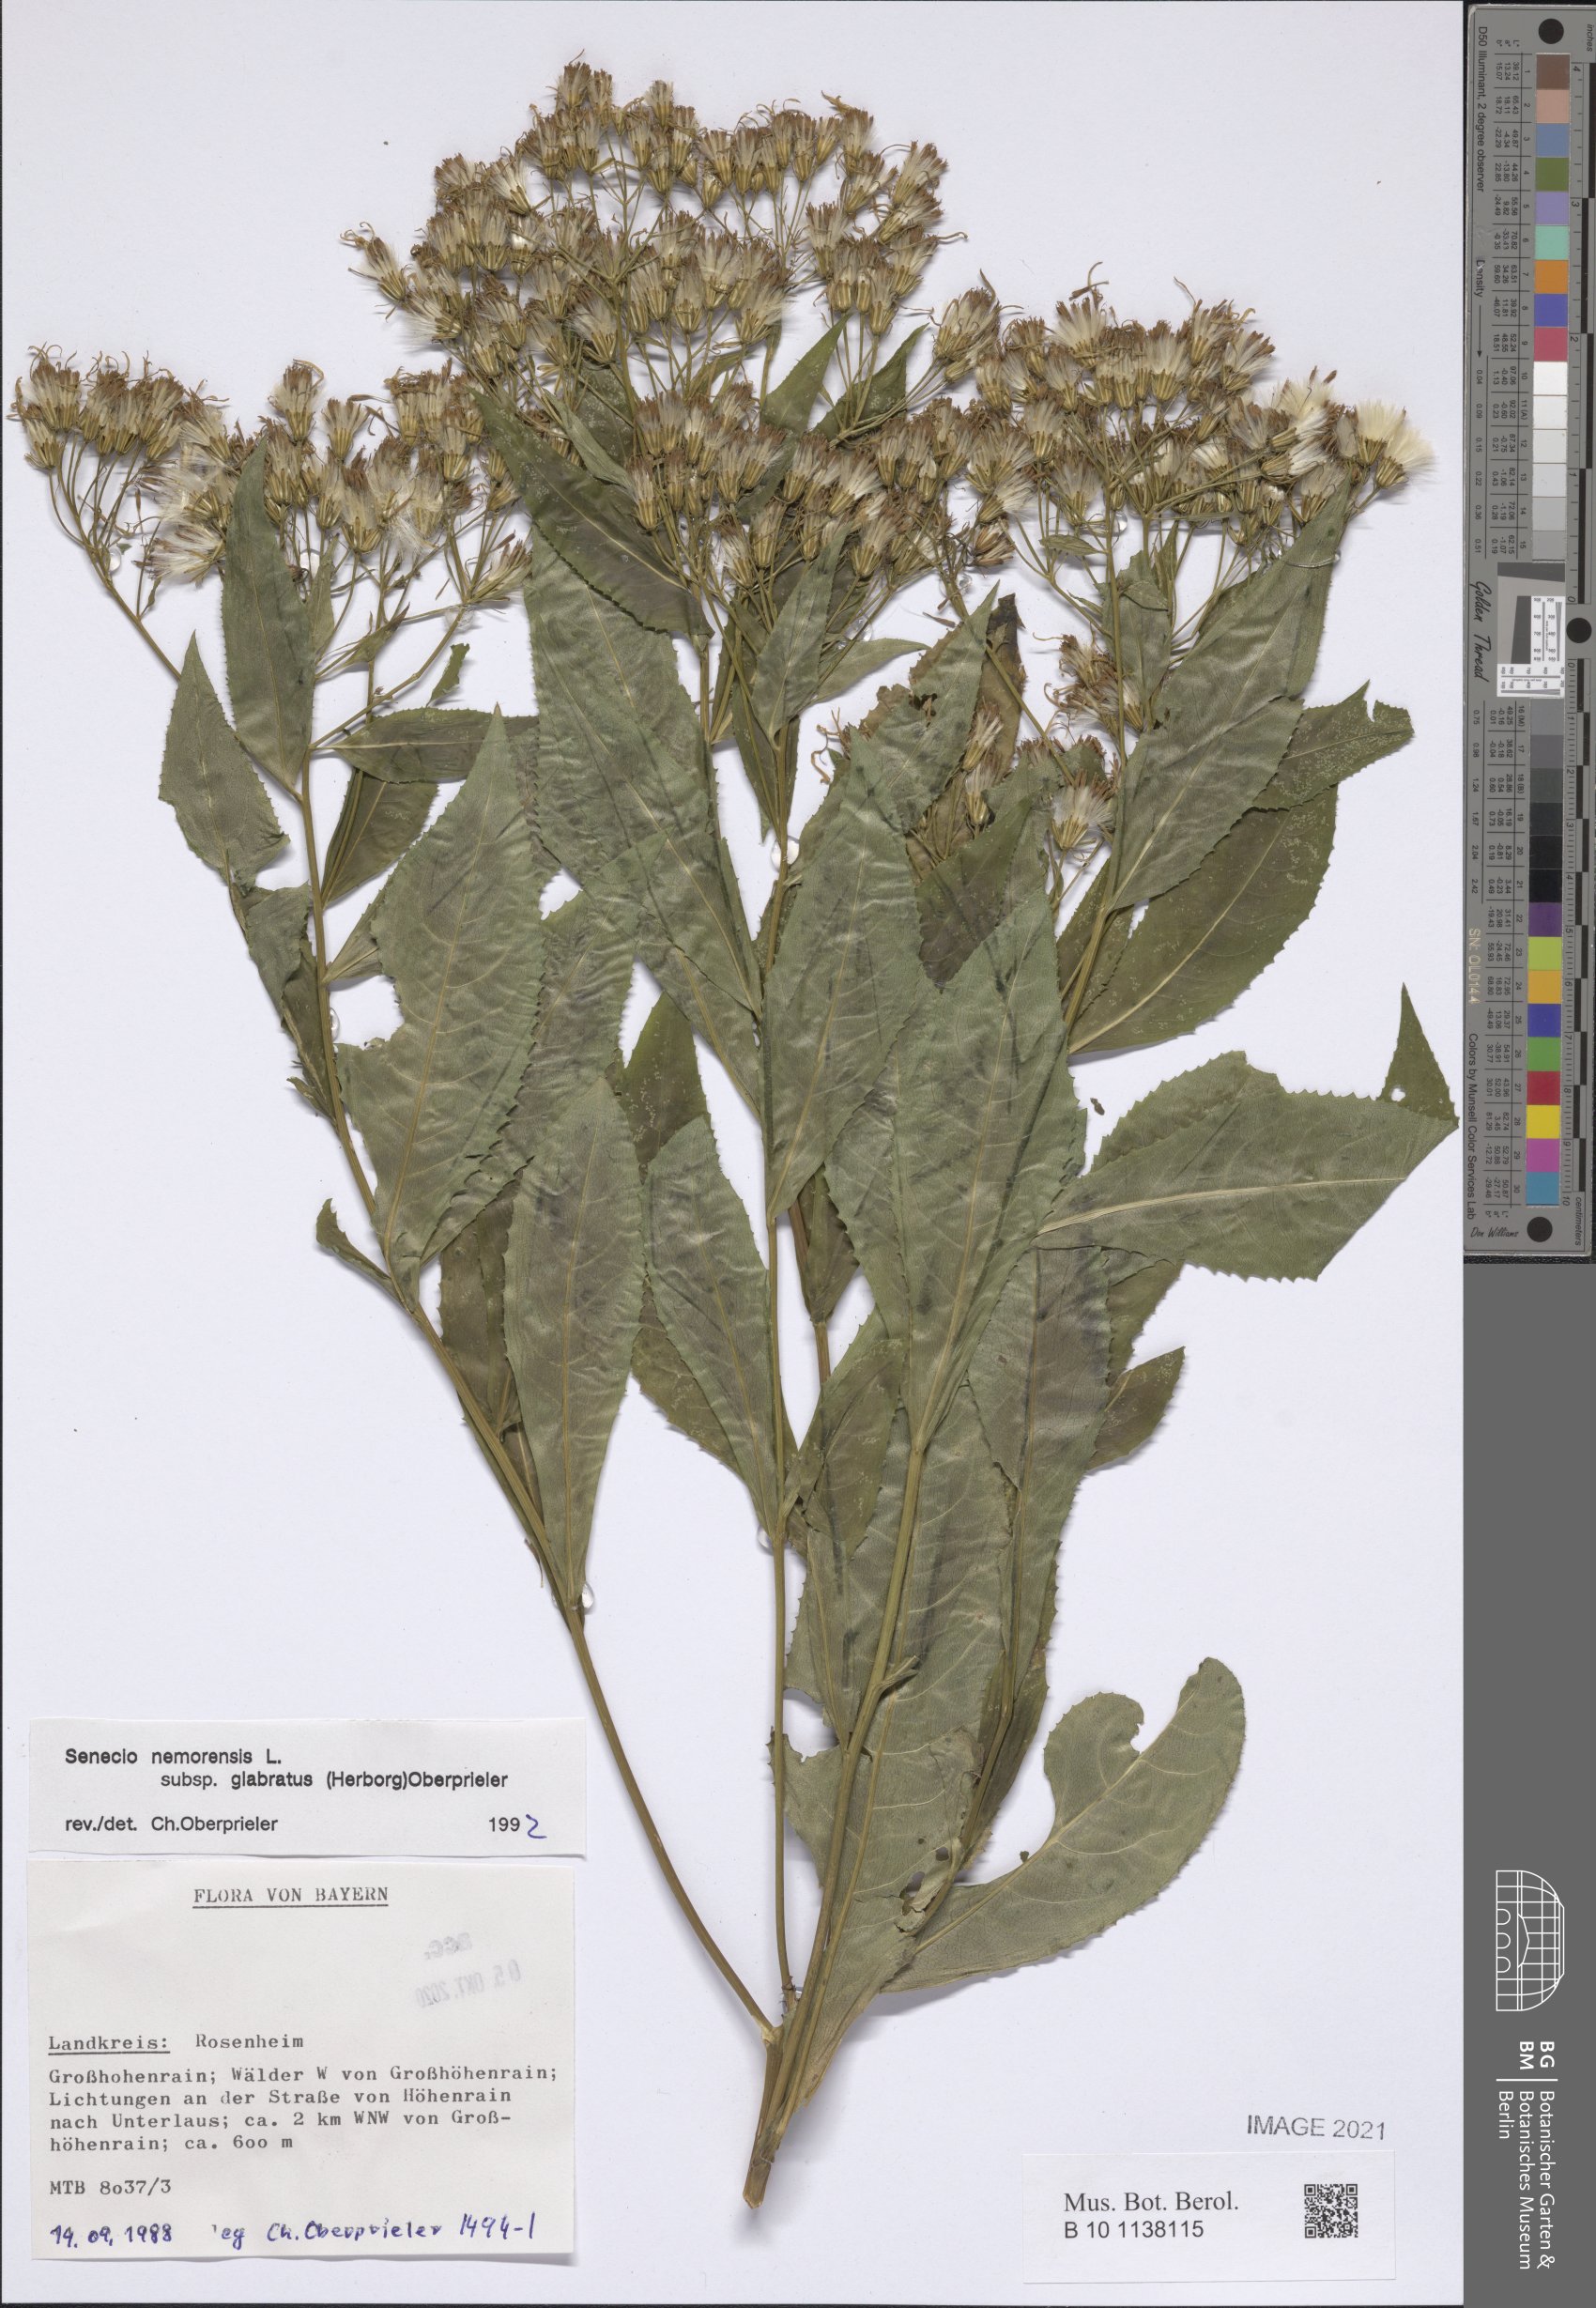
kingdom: Plantae
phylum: Tracheophyta
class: Magnoliopsida
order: Asterales
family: Asteraceae
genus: Senecio
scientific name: Senecio germanicus
